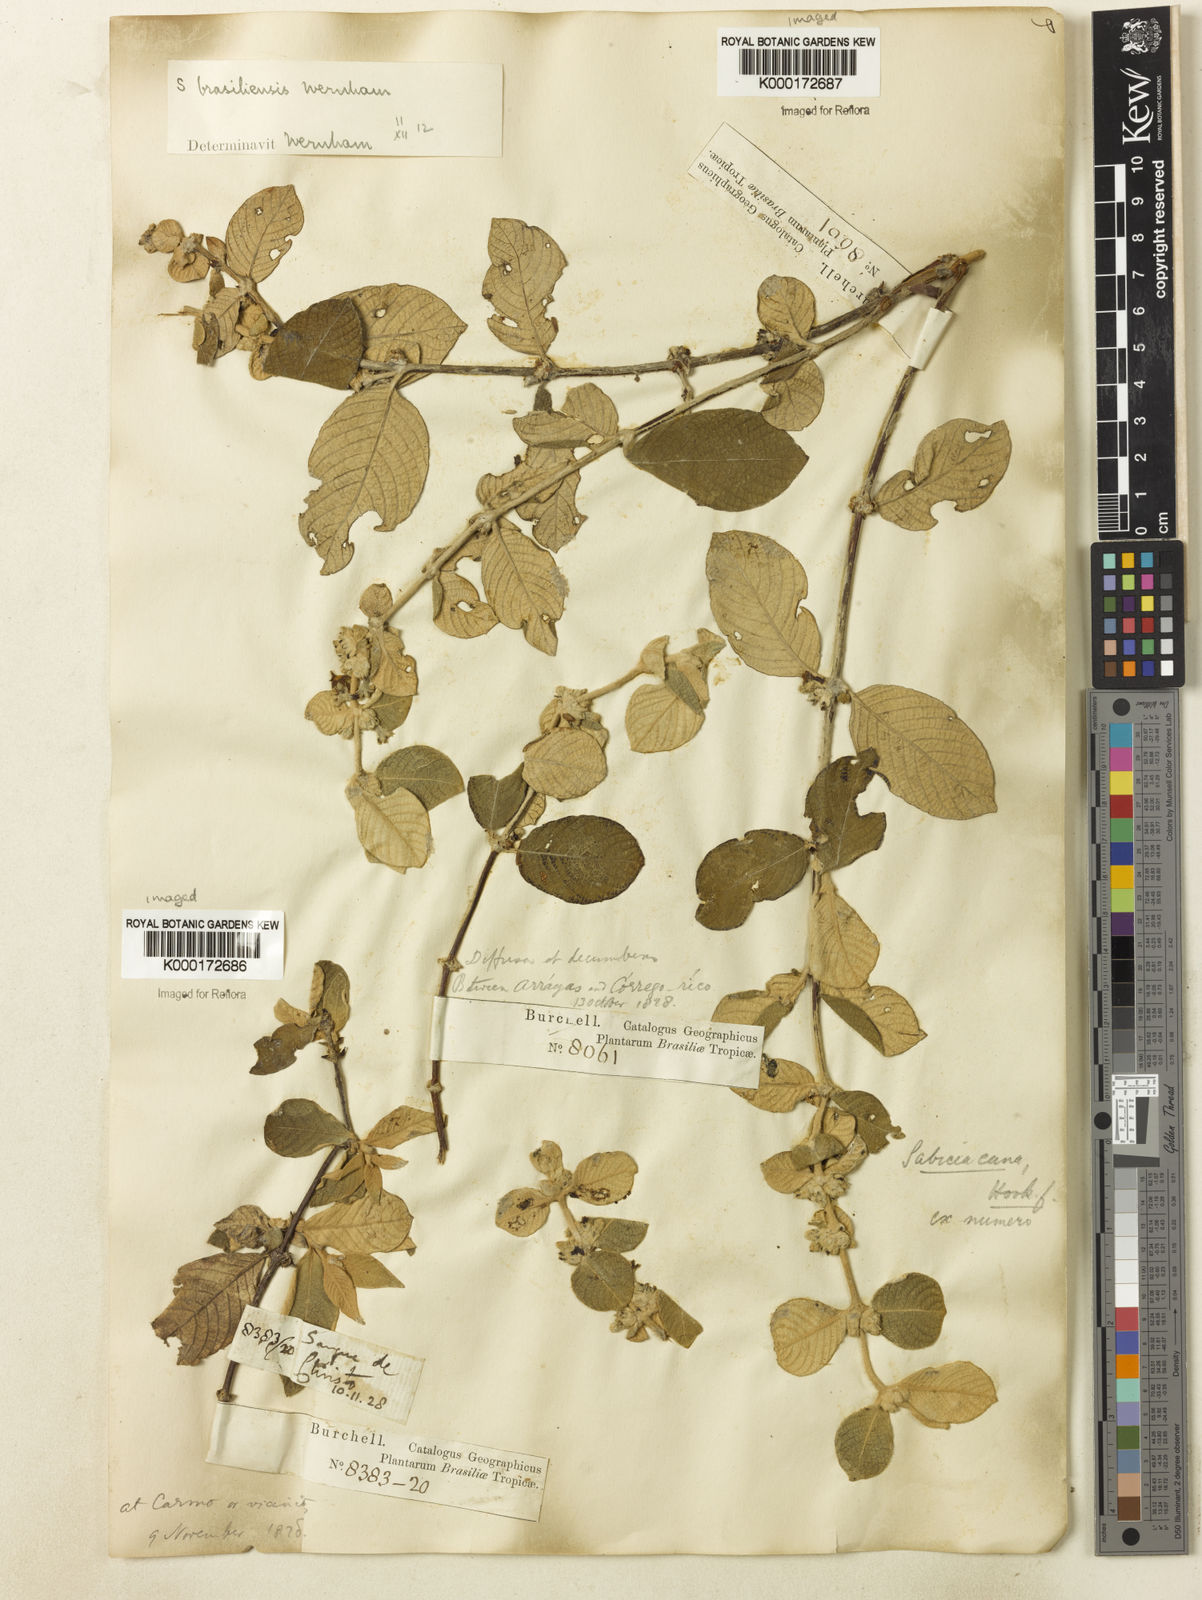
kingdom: Plantae
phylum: Tracheophyta
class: Magnoliopsida
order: Gentianales
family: Rubiaceae
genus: Sabicea
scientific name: Sabicea brasiliensis
